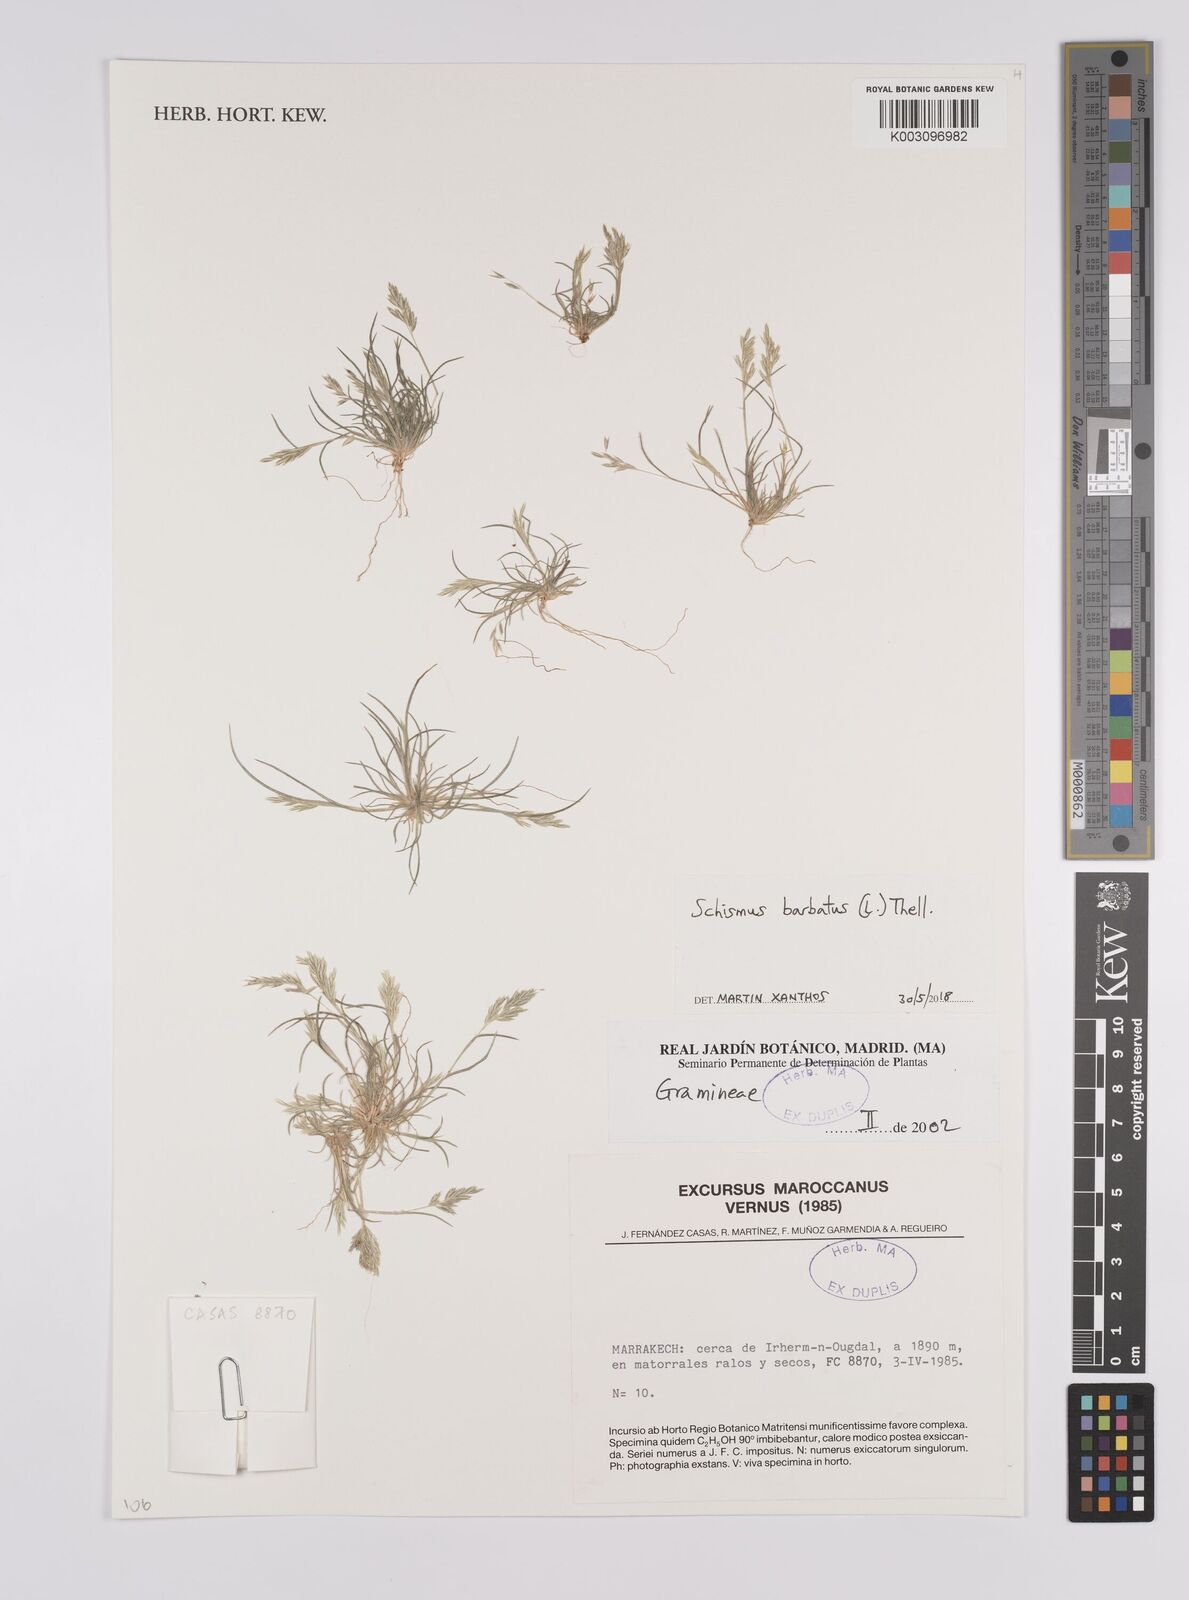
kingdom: Plantae
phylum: Tracheophyta
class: Liliopsida
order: Poales
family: Poaceae
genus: Schismus
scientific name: Schismus barbatus
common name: Kelch-grass
